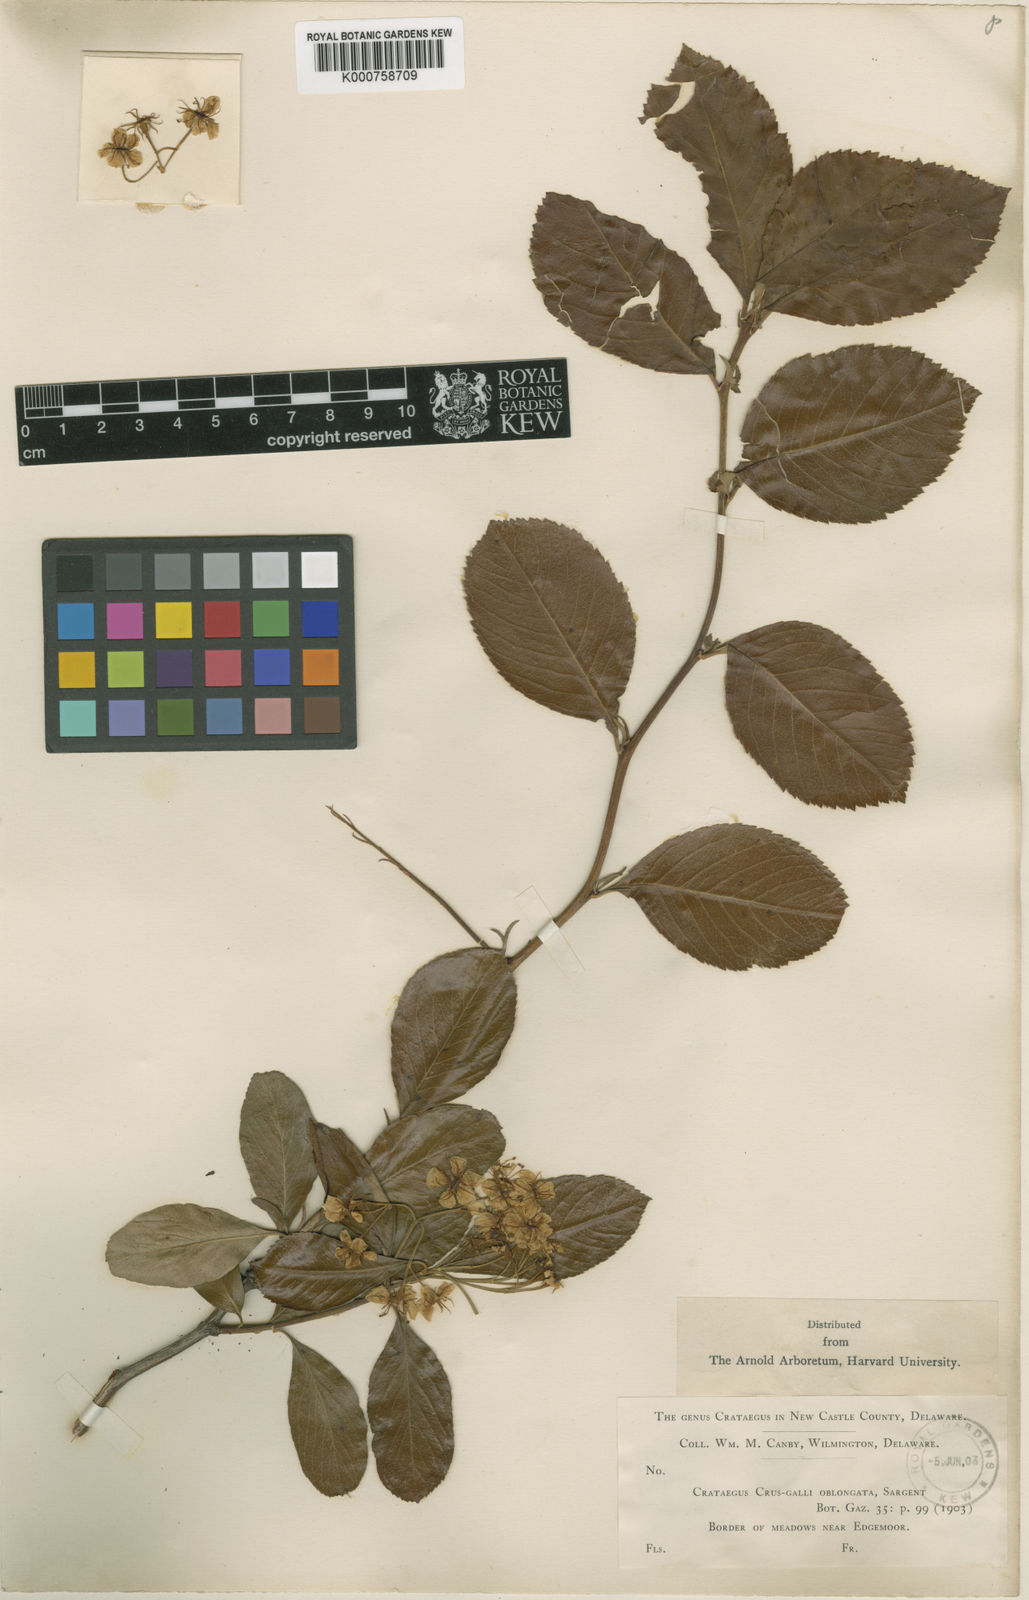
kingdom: Plantae
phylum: Tracheophyta
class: Magnoliopsida
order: Rosales
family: Rosaceae
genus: Crataegus
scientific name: Crataegus crus-galli
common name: Cockspurthorn
